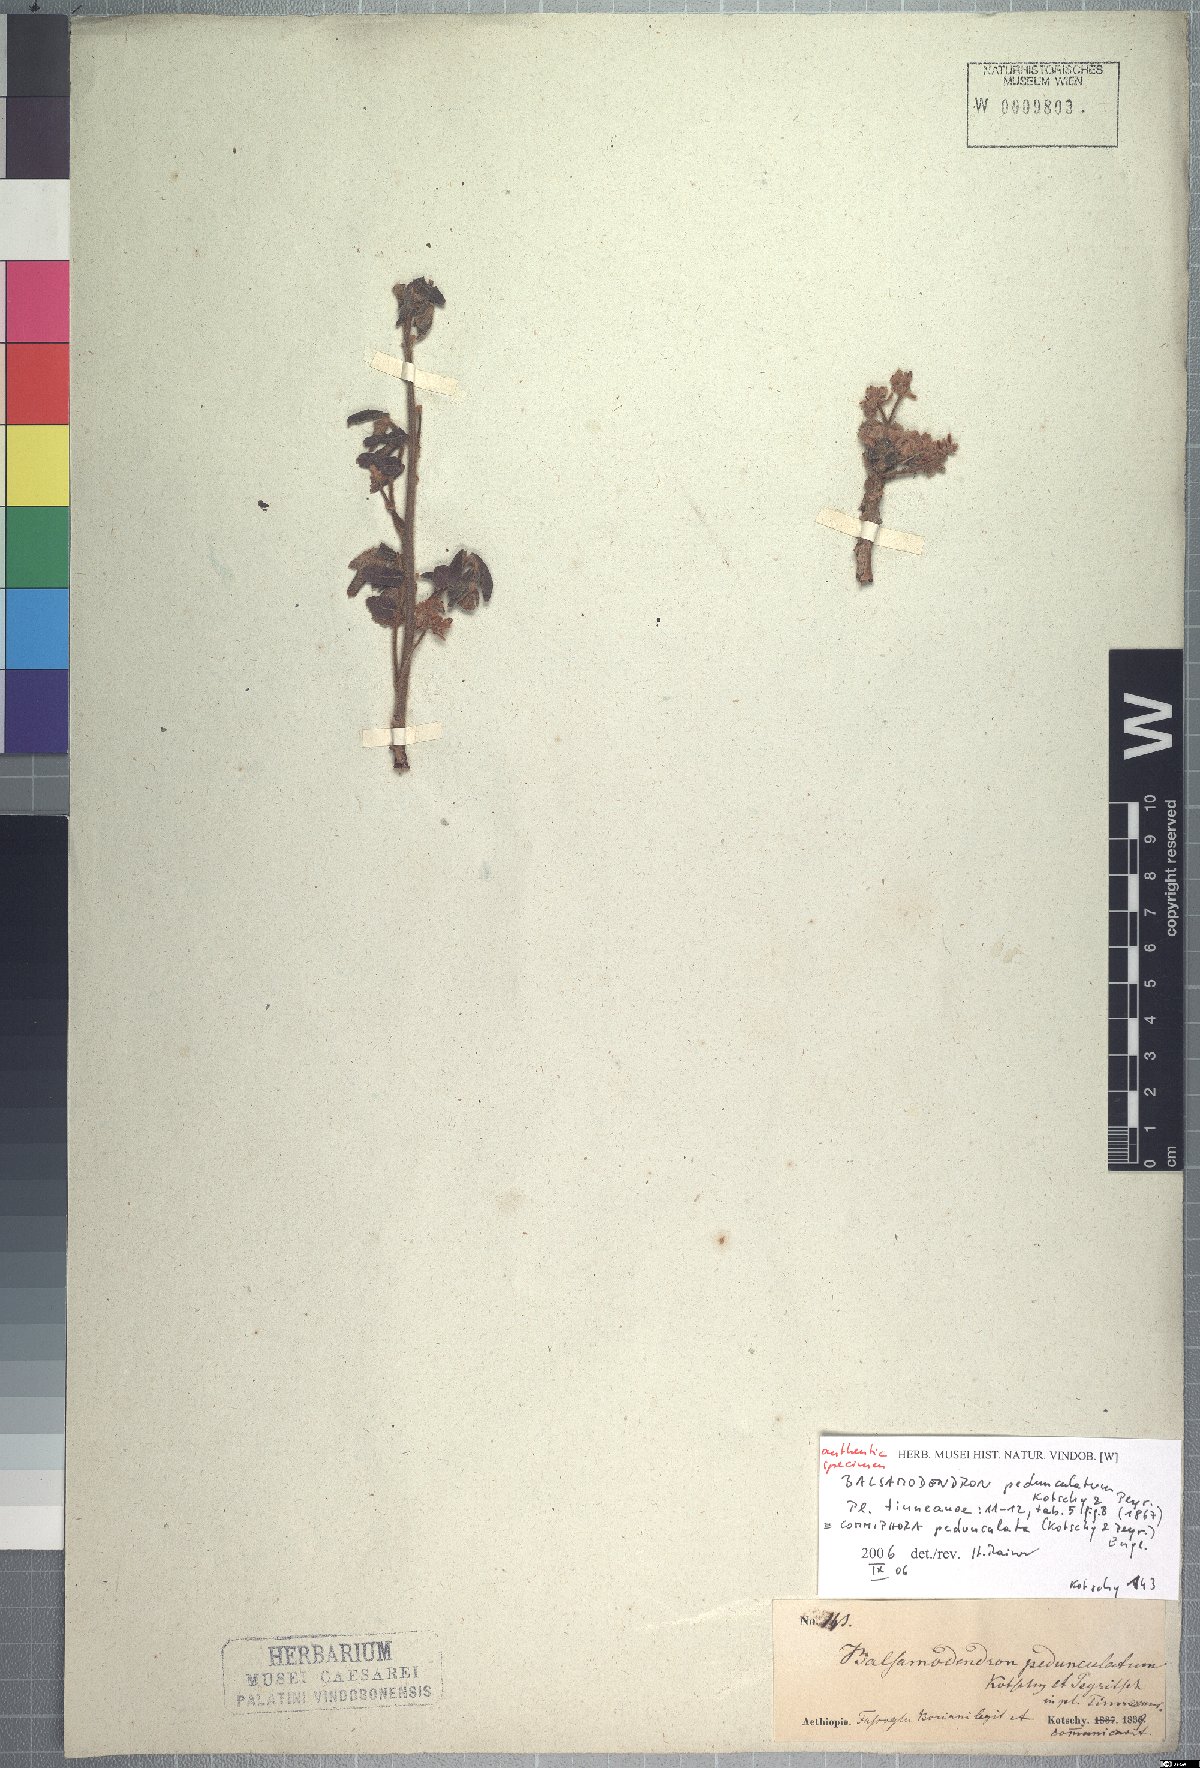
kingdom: Plantae
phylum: Tracheophyta
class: Magnoliopsida
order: Sapindales
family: Burseraceae
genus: Commiphora
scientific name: Commiphora pedunculata
